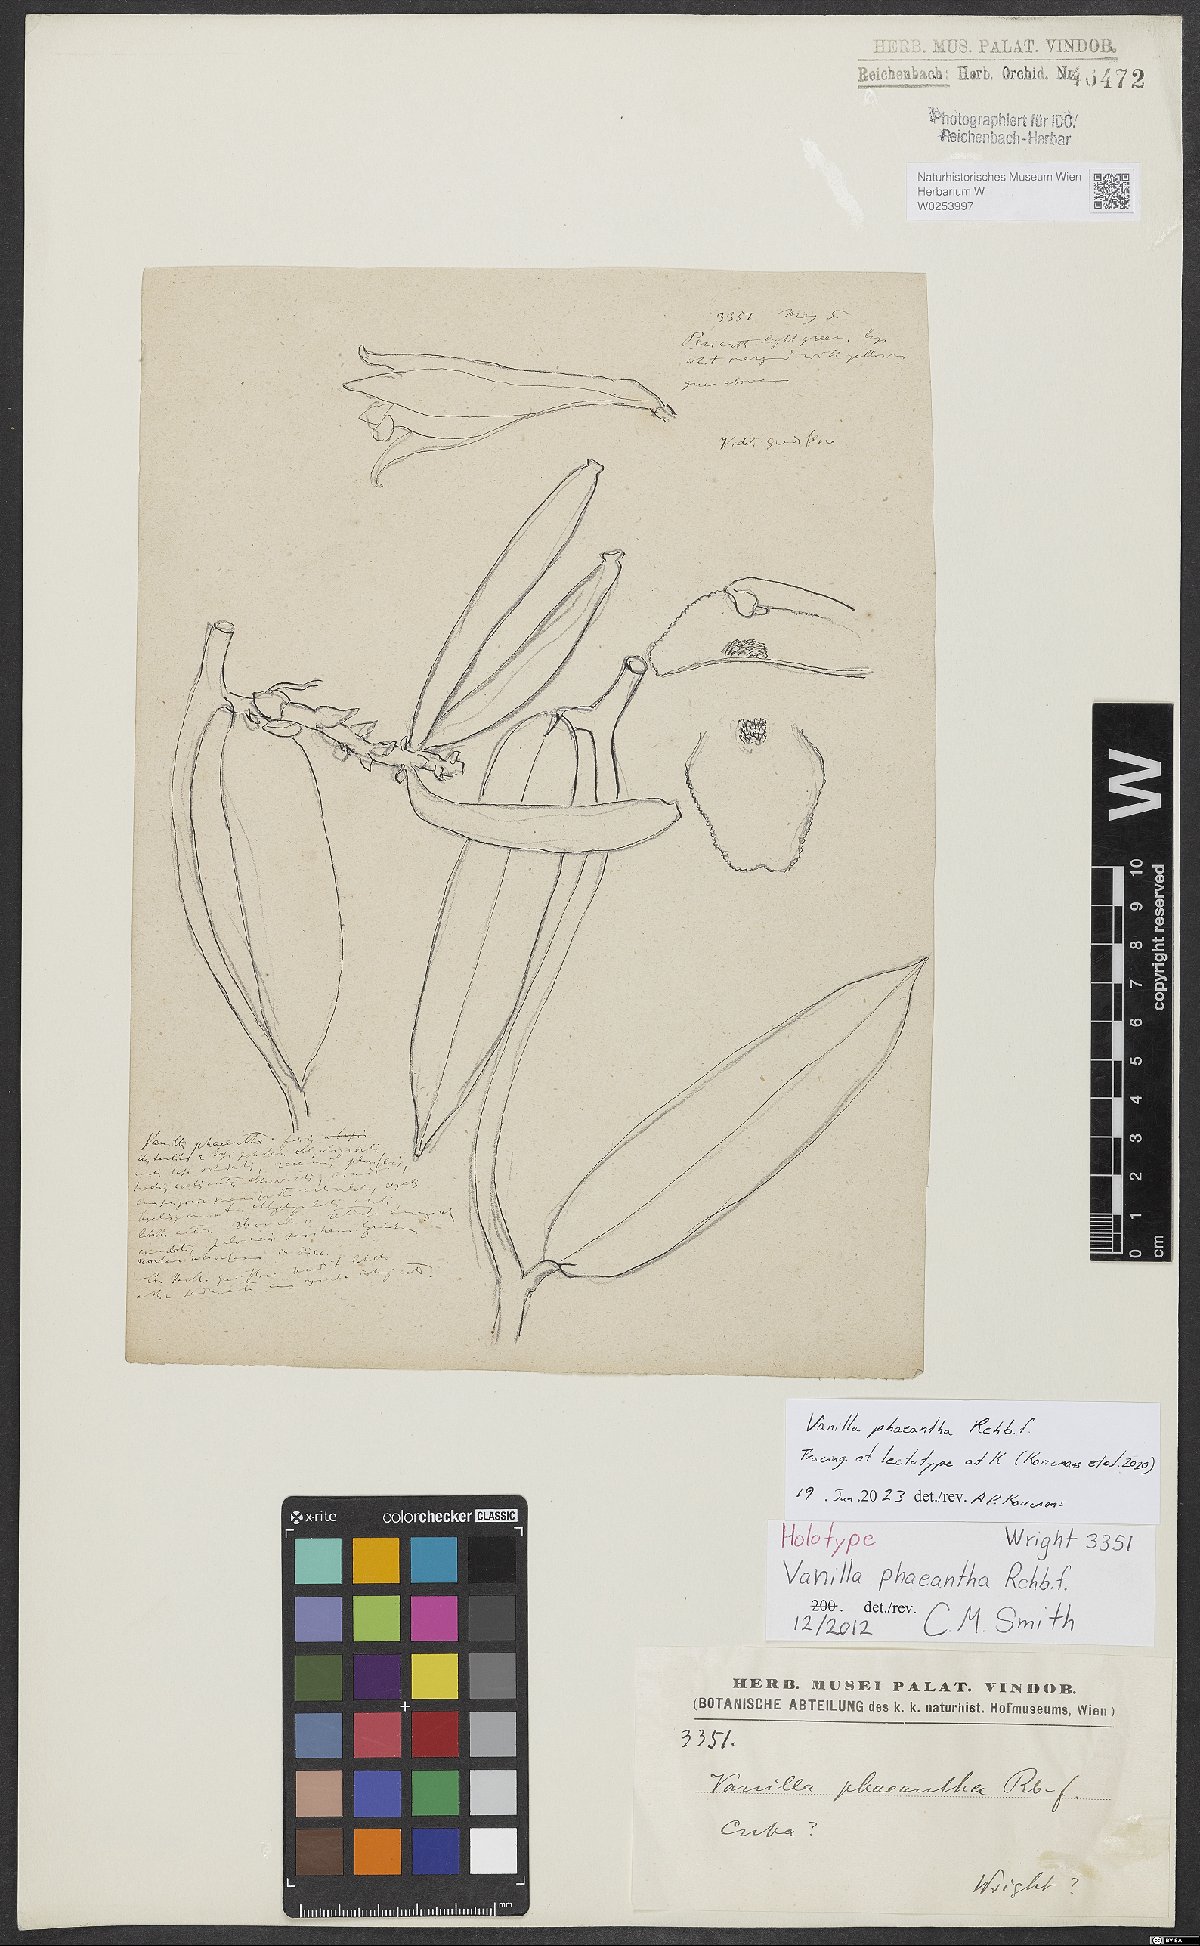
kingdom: Plantae
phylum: Tracheophyta
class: Liliopsida
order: Asparagales
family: Orchidaceae
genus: Vanilla
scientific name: Vanilla phaeantha
